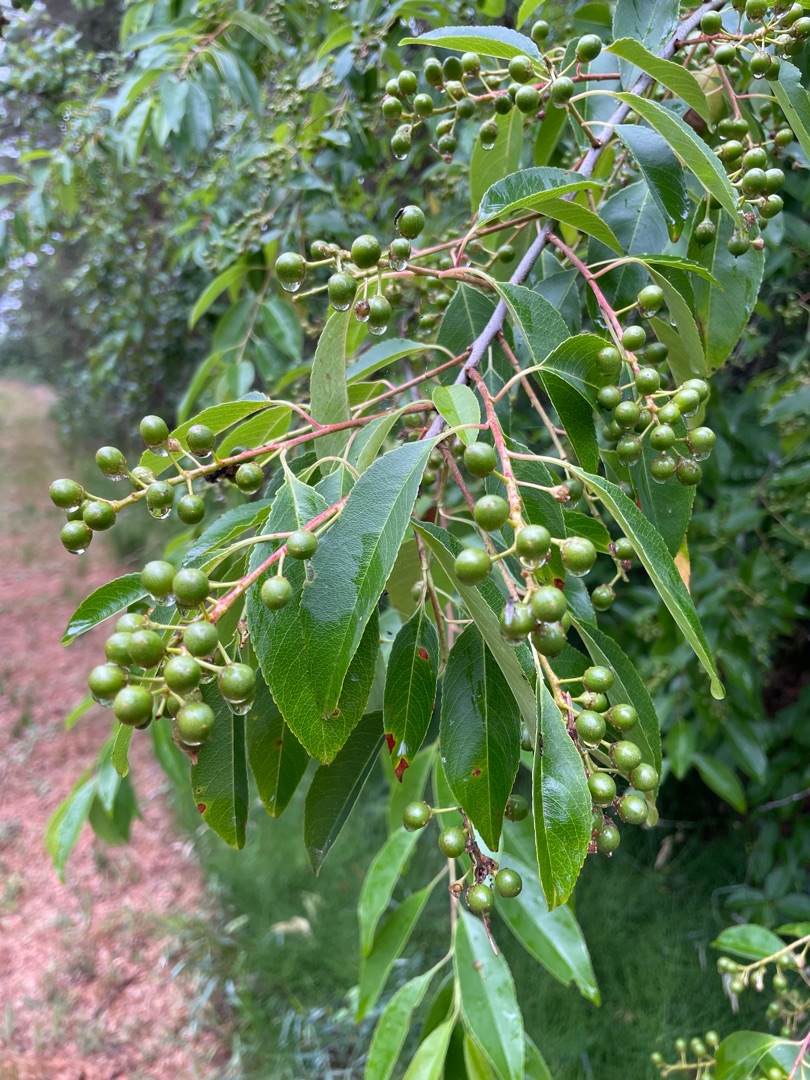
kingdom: Plantae
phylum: Tracheophyta
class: Magnoliopsida
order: Rosales
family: Rosaceae
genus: Prunus
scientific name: Prunus serotina
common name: Glansbladet hæg
